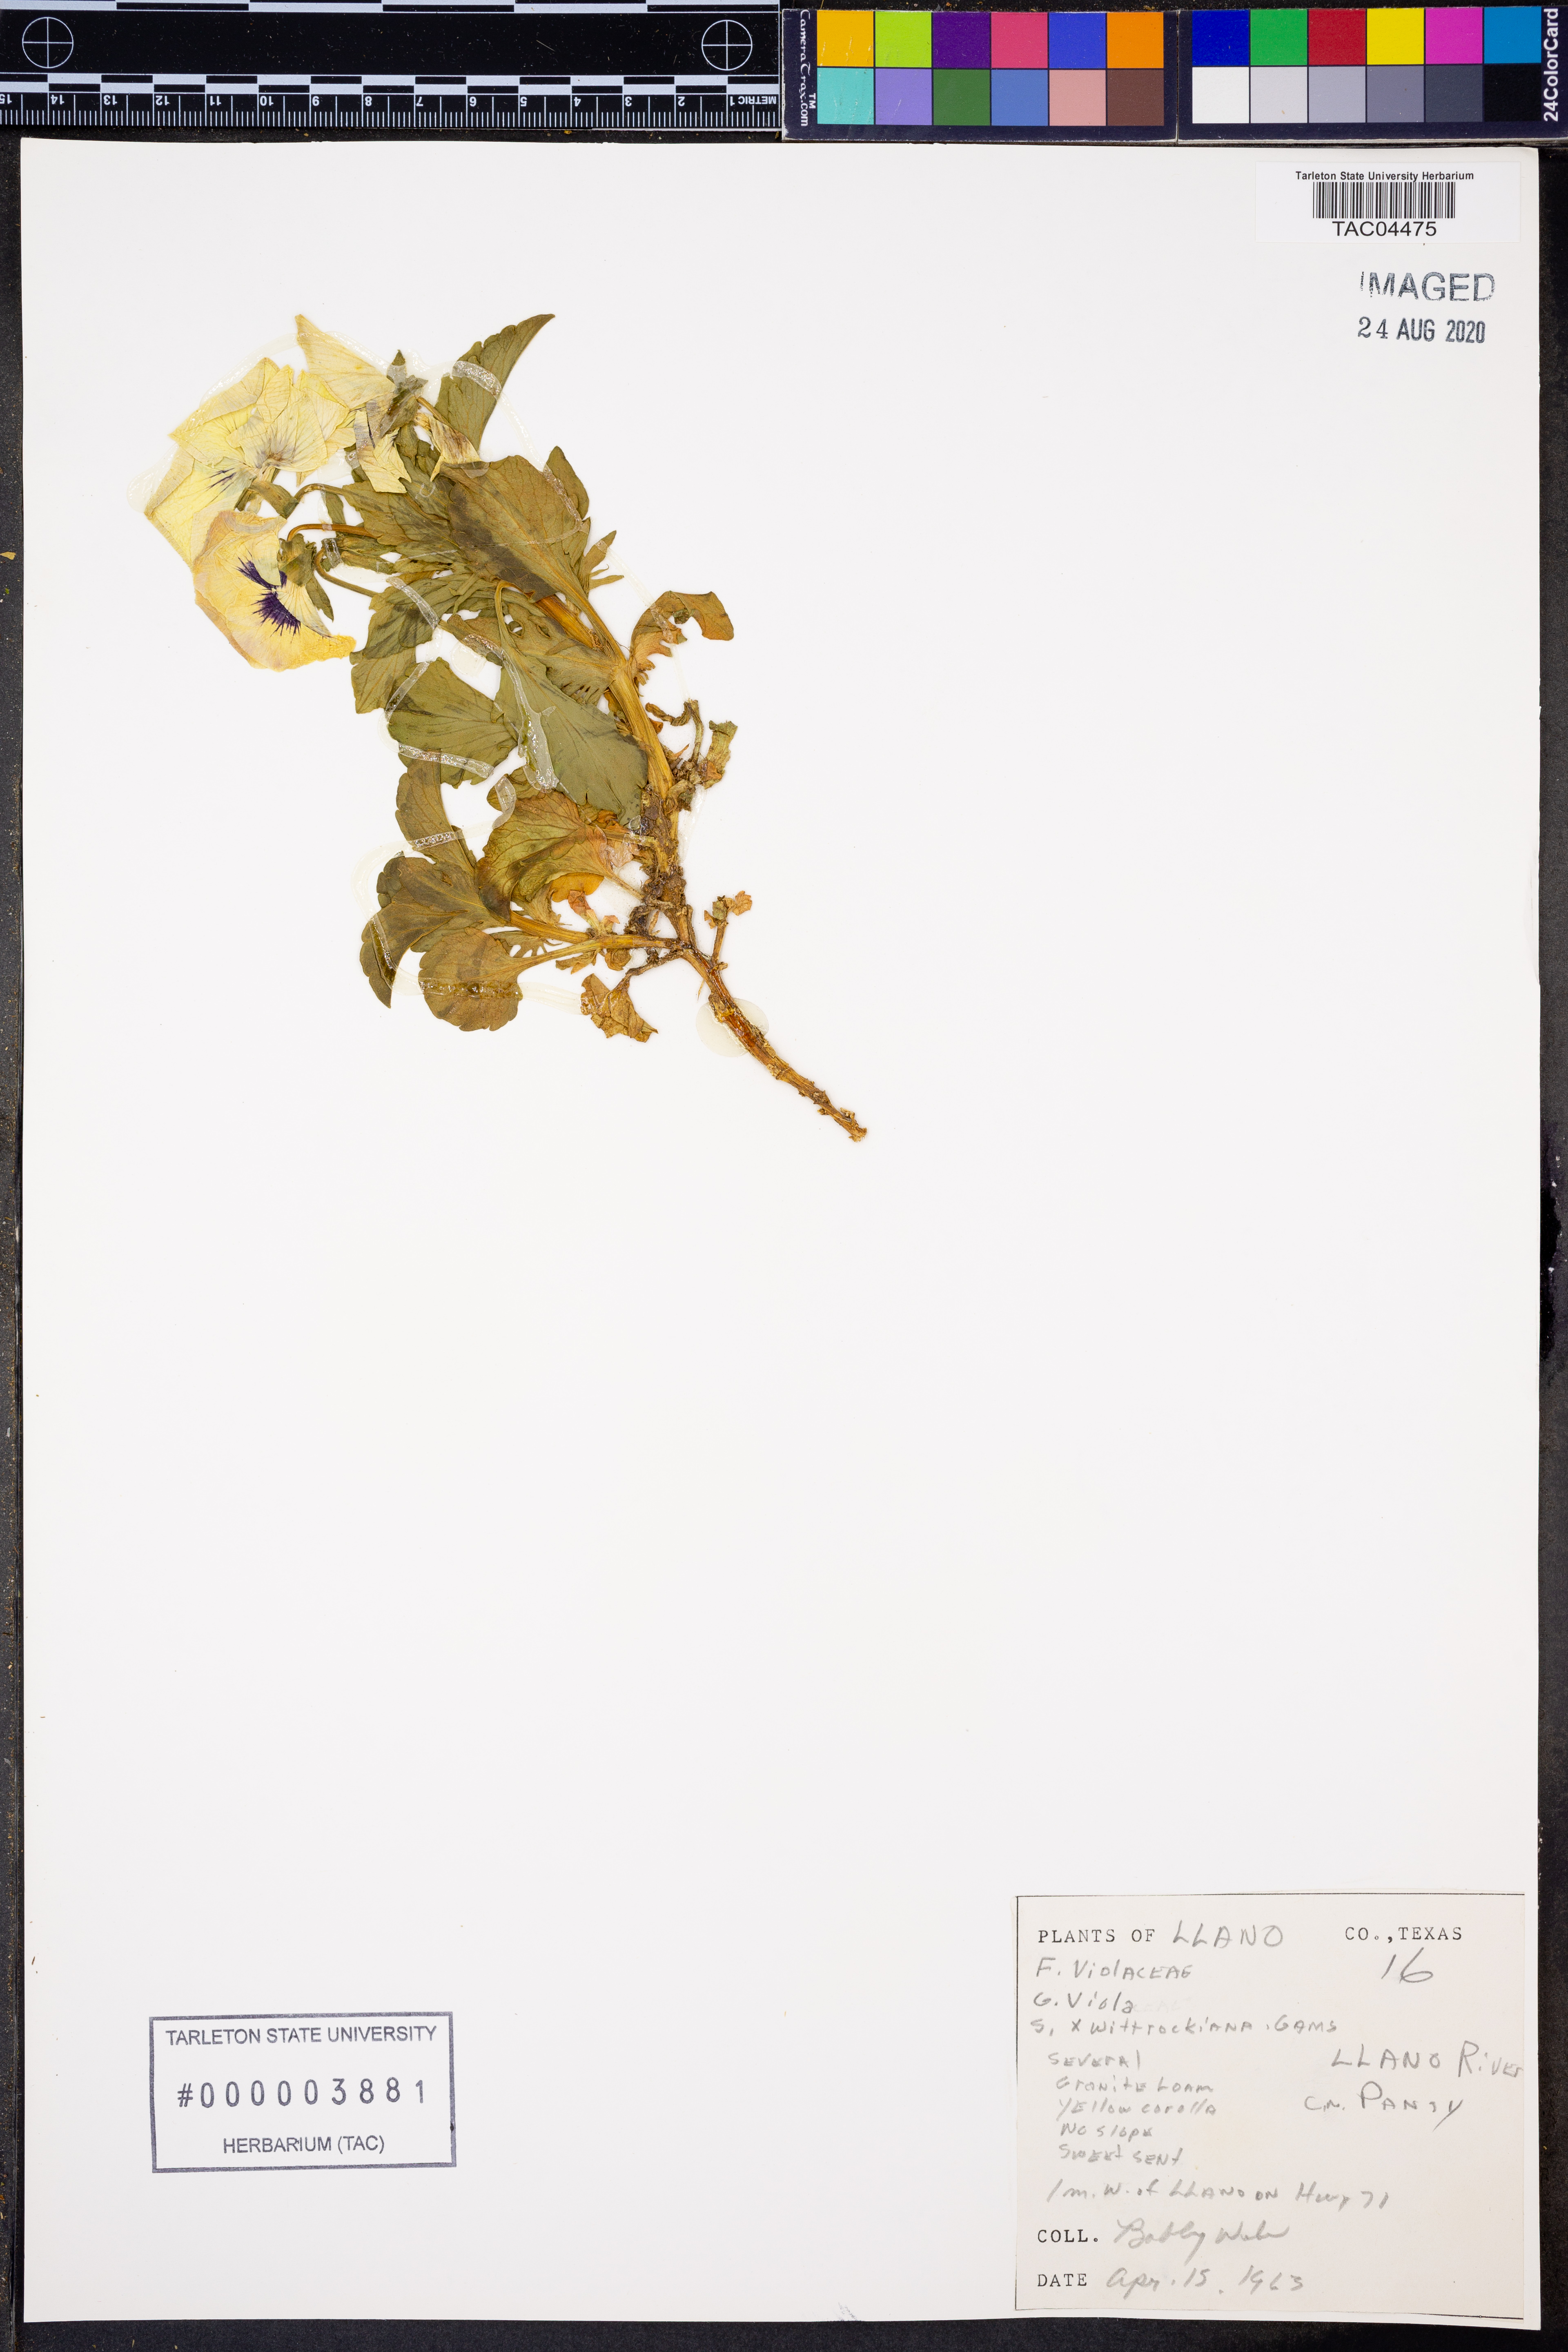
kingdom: Plantae
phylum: Tracheophyta
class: Magnoliopsida
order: Malpighiales
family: Violaceae
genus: Viola
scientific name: Viola wittrockiana
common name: Garden pansy
